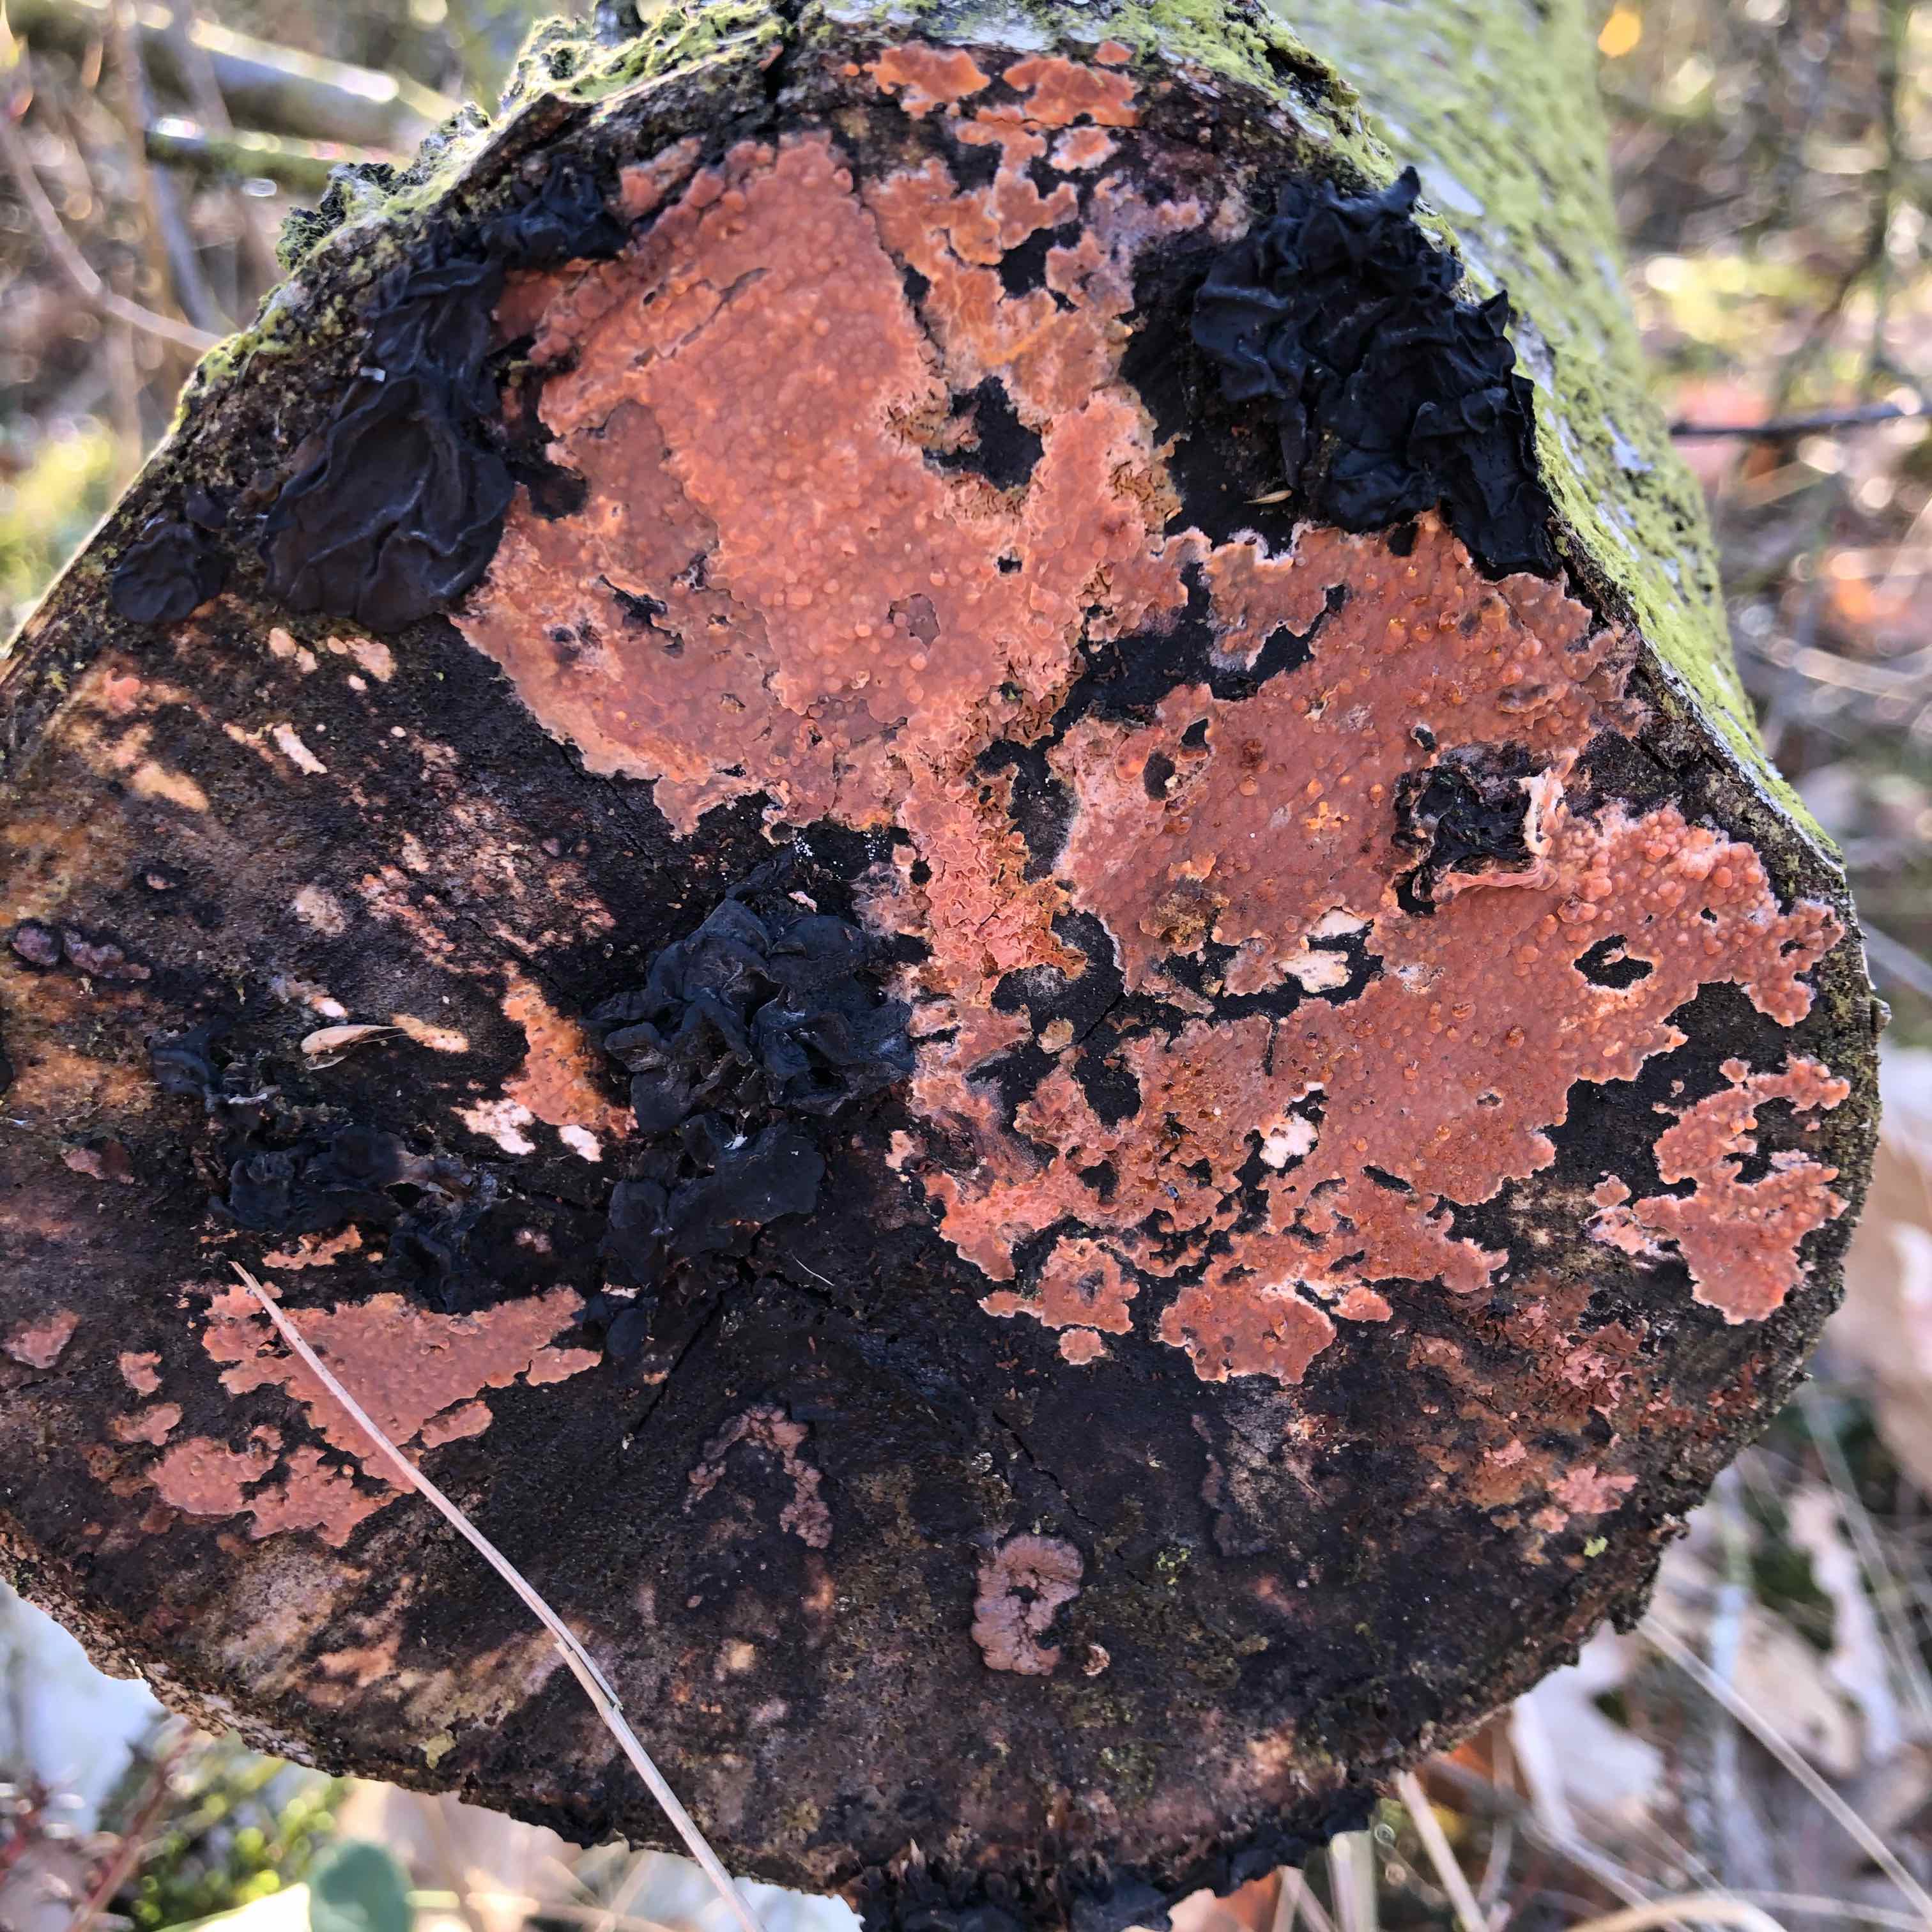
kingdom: Fungi
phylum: Basidiomycota
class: Agaricomycetes
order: Russulales
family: Peniophoraceae
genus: Peniophora
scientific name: Peniophora incarnata
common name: laksefarvet voksskind
